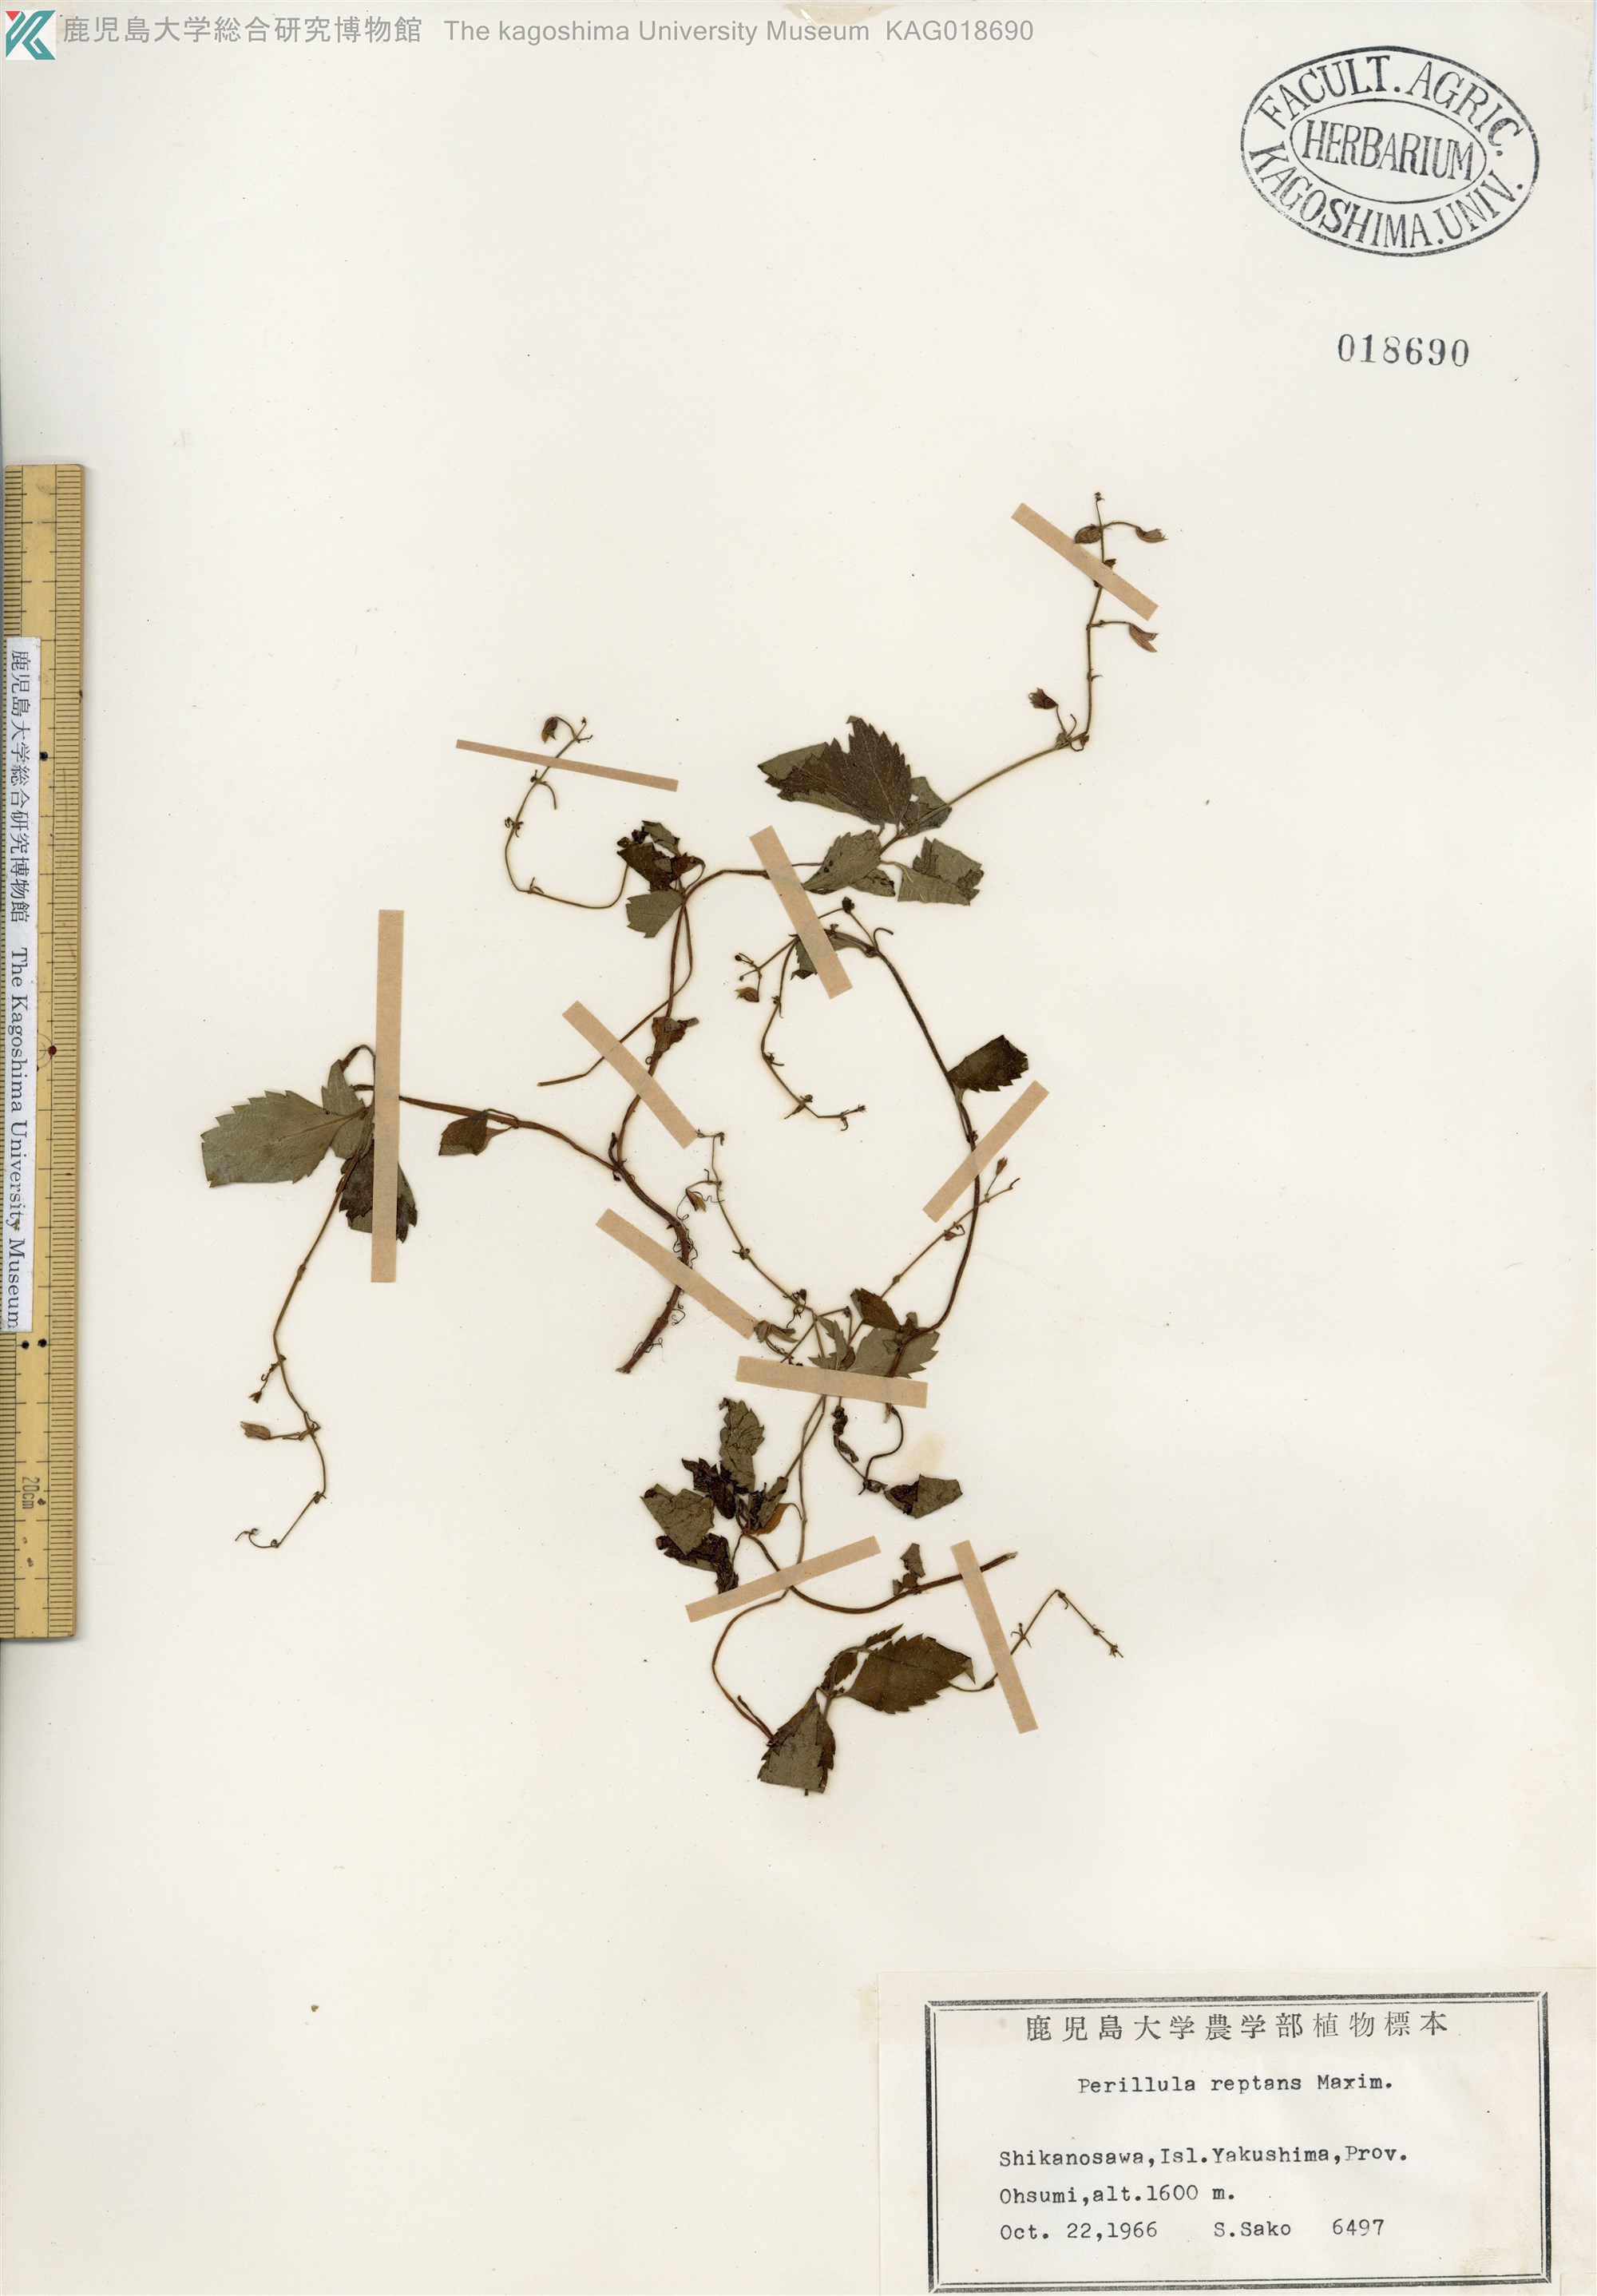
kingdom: Plantae
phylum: Tracheophyta
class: Magnoliopsida
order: Lamiales
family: Lamiaceae
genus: Perillula
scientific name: Perillula reptans
